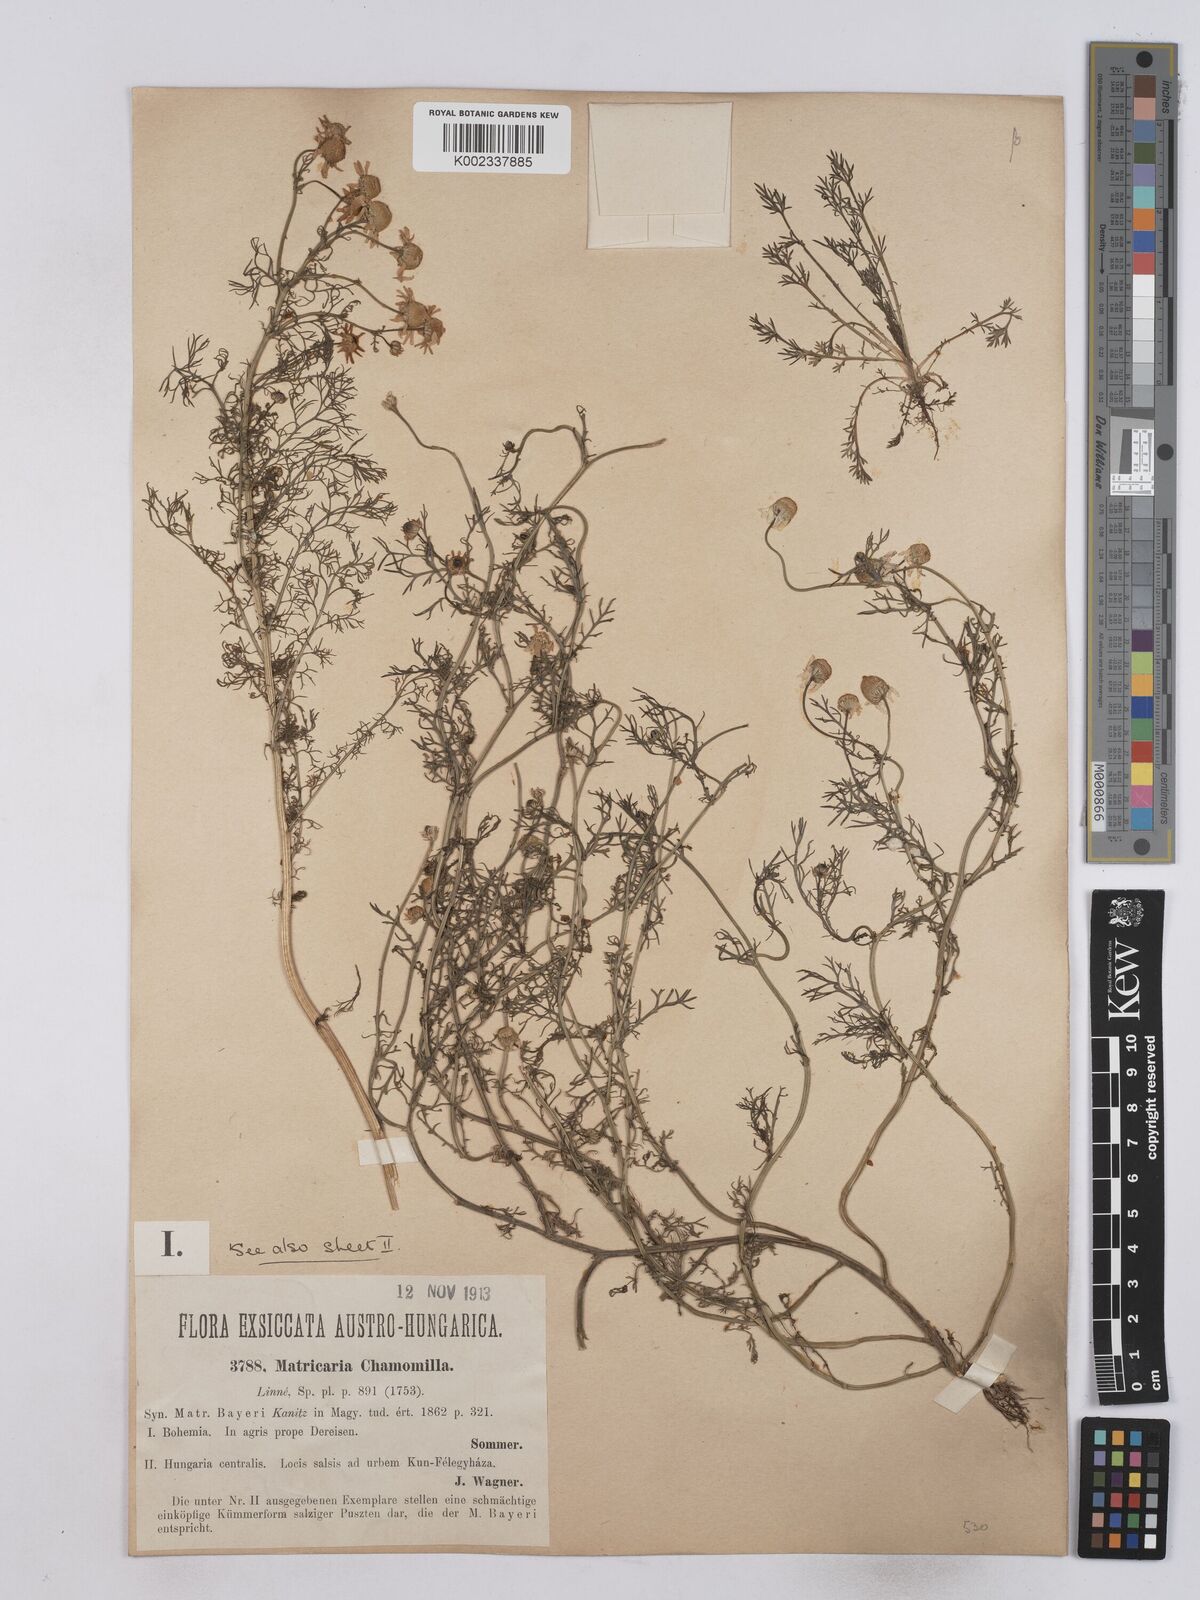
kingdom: Plantae
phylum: Tracheophyta
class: Magnoliopsida
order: Asterales
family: Asteraceae
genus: Matricaria
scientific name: Matricaria chamomilla
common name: Scented mayweed
